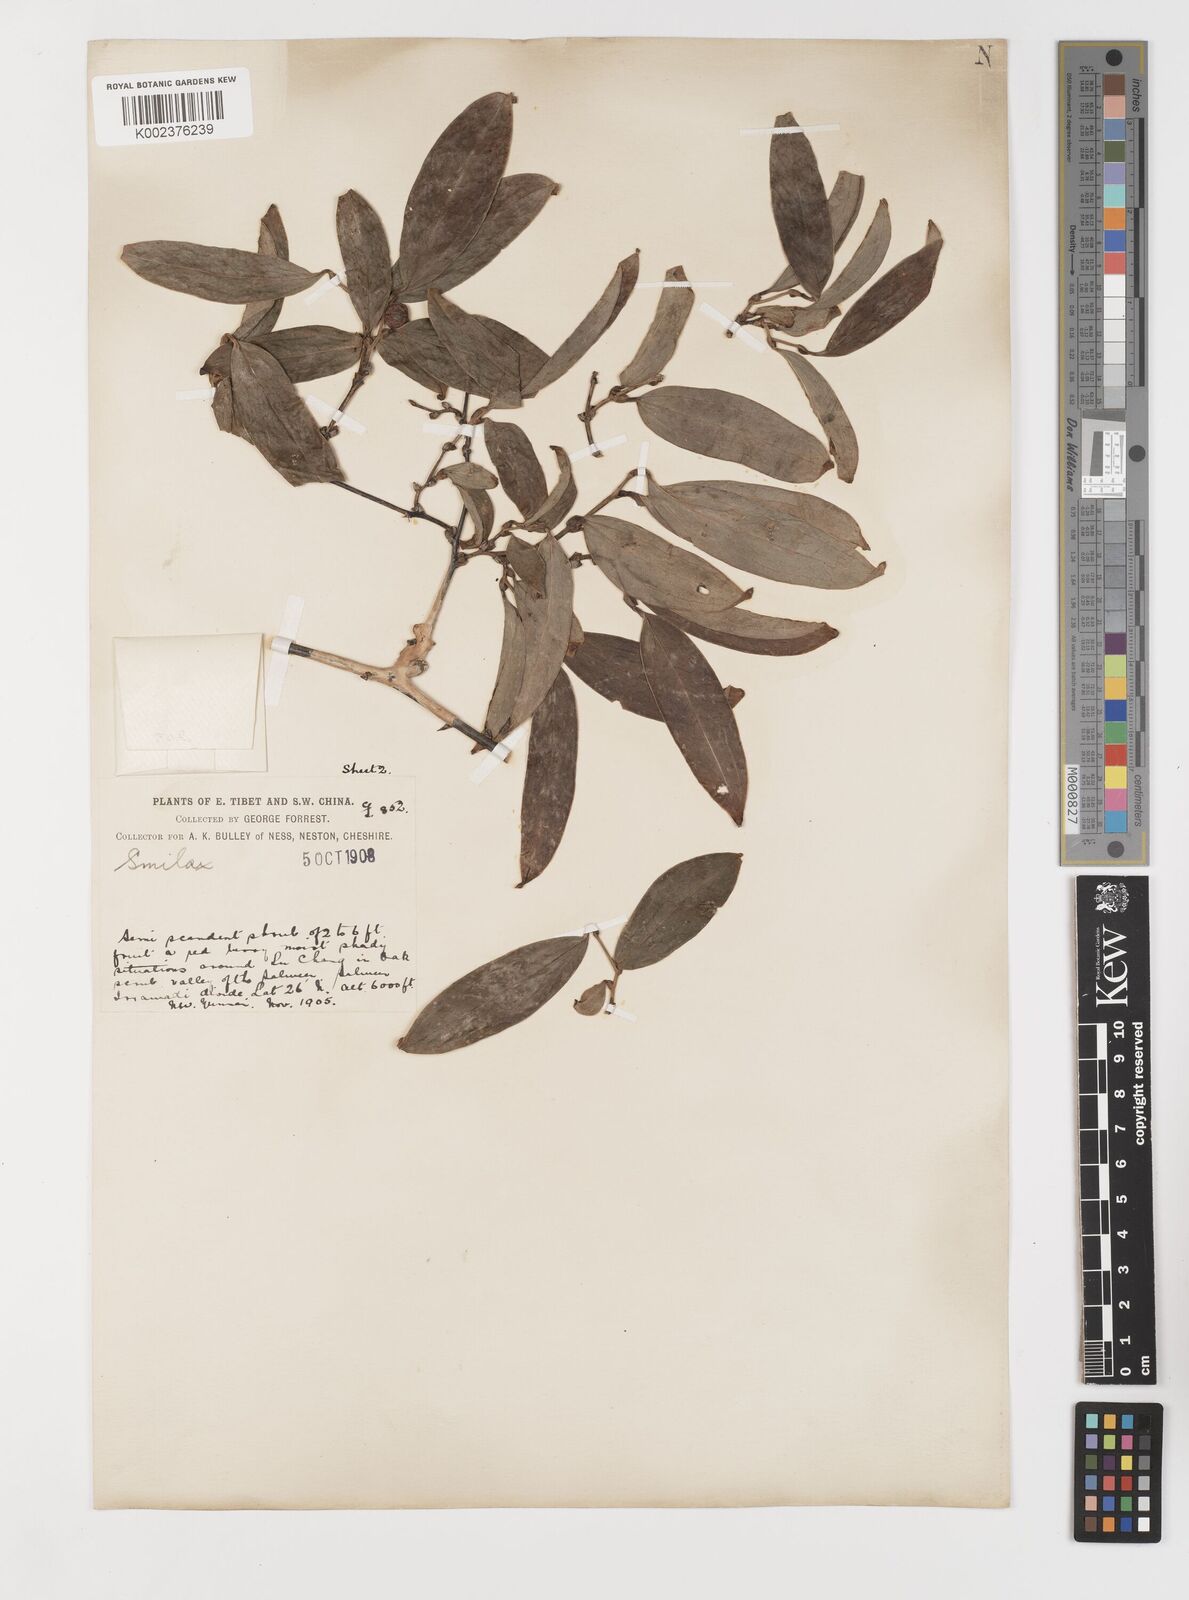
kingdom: Plantae
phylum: Tracheophyta
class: Liliopsida
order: Liliales
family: Smilacaceae
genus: Smilax
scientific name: Smilax ferox
